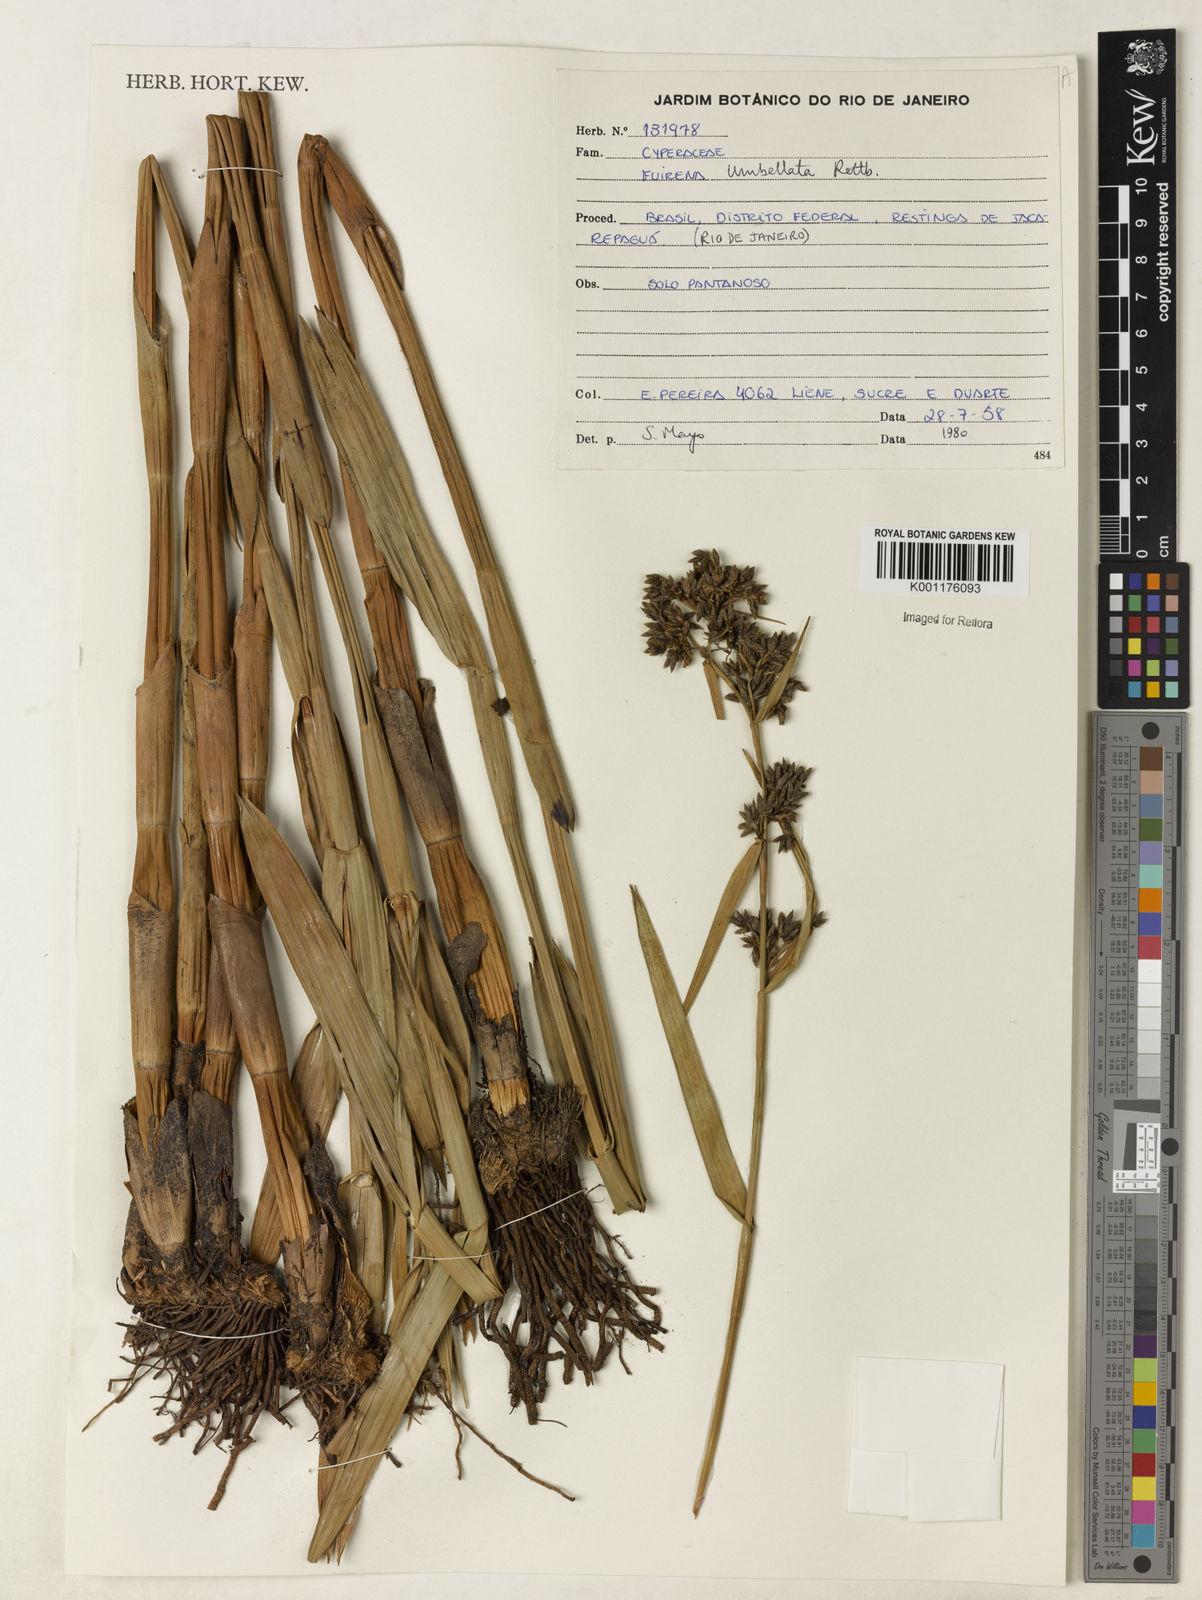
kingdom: Plantae
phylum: Tracheophyta
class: Liliopsida
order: Poales
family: Cyperaceae
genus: Fuirena
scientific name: Fuirena umbellata
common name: Yefen
